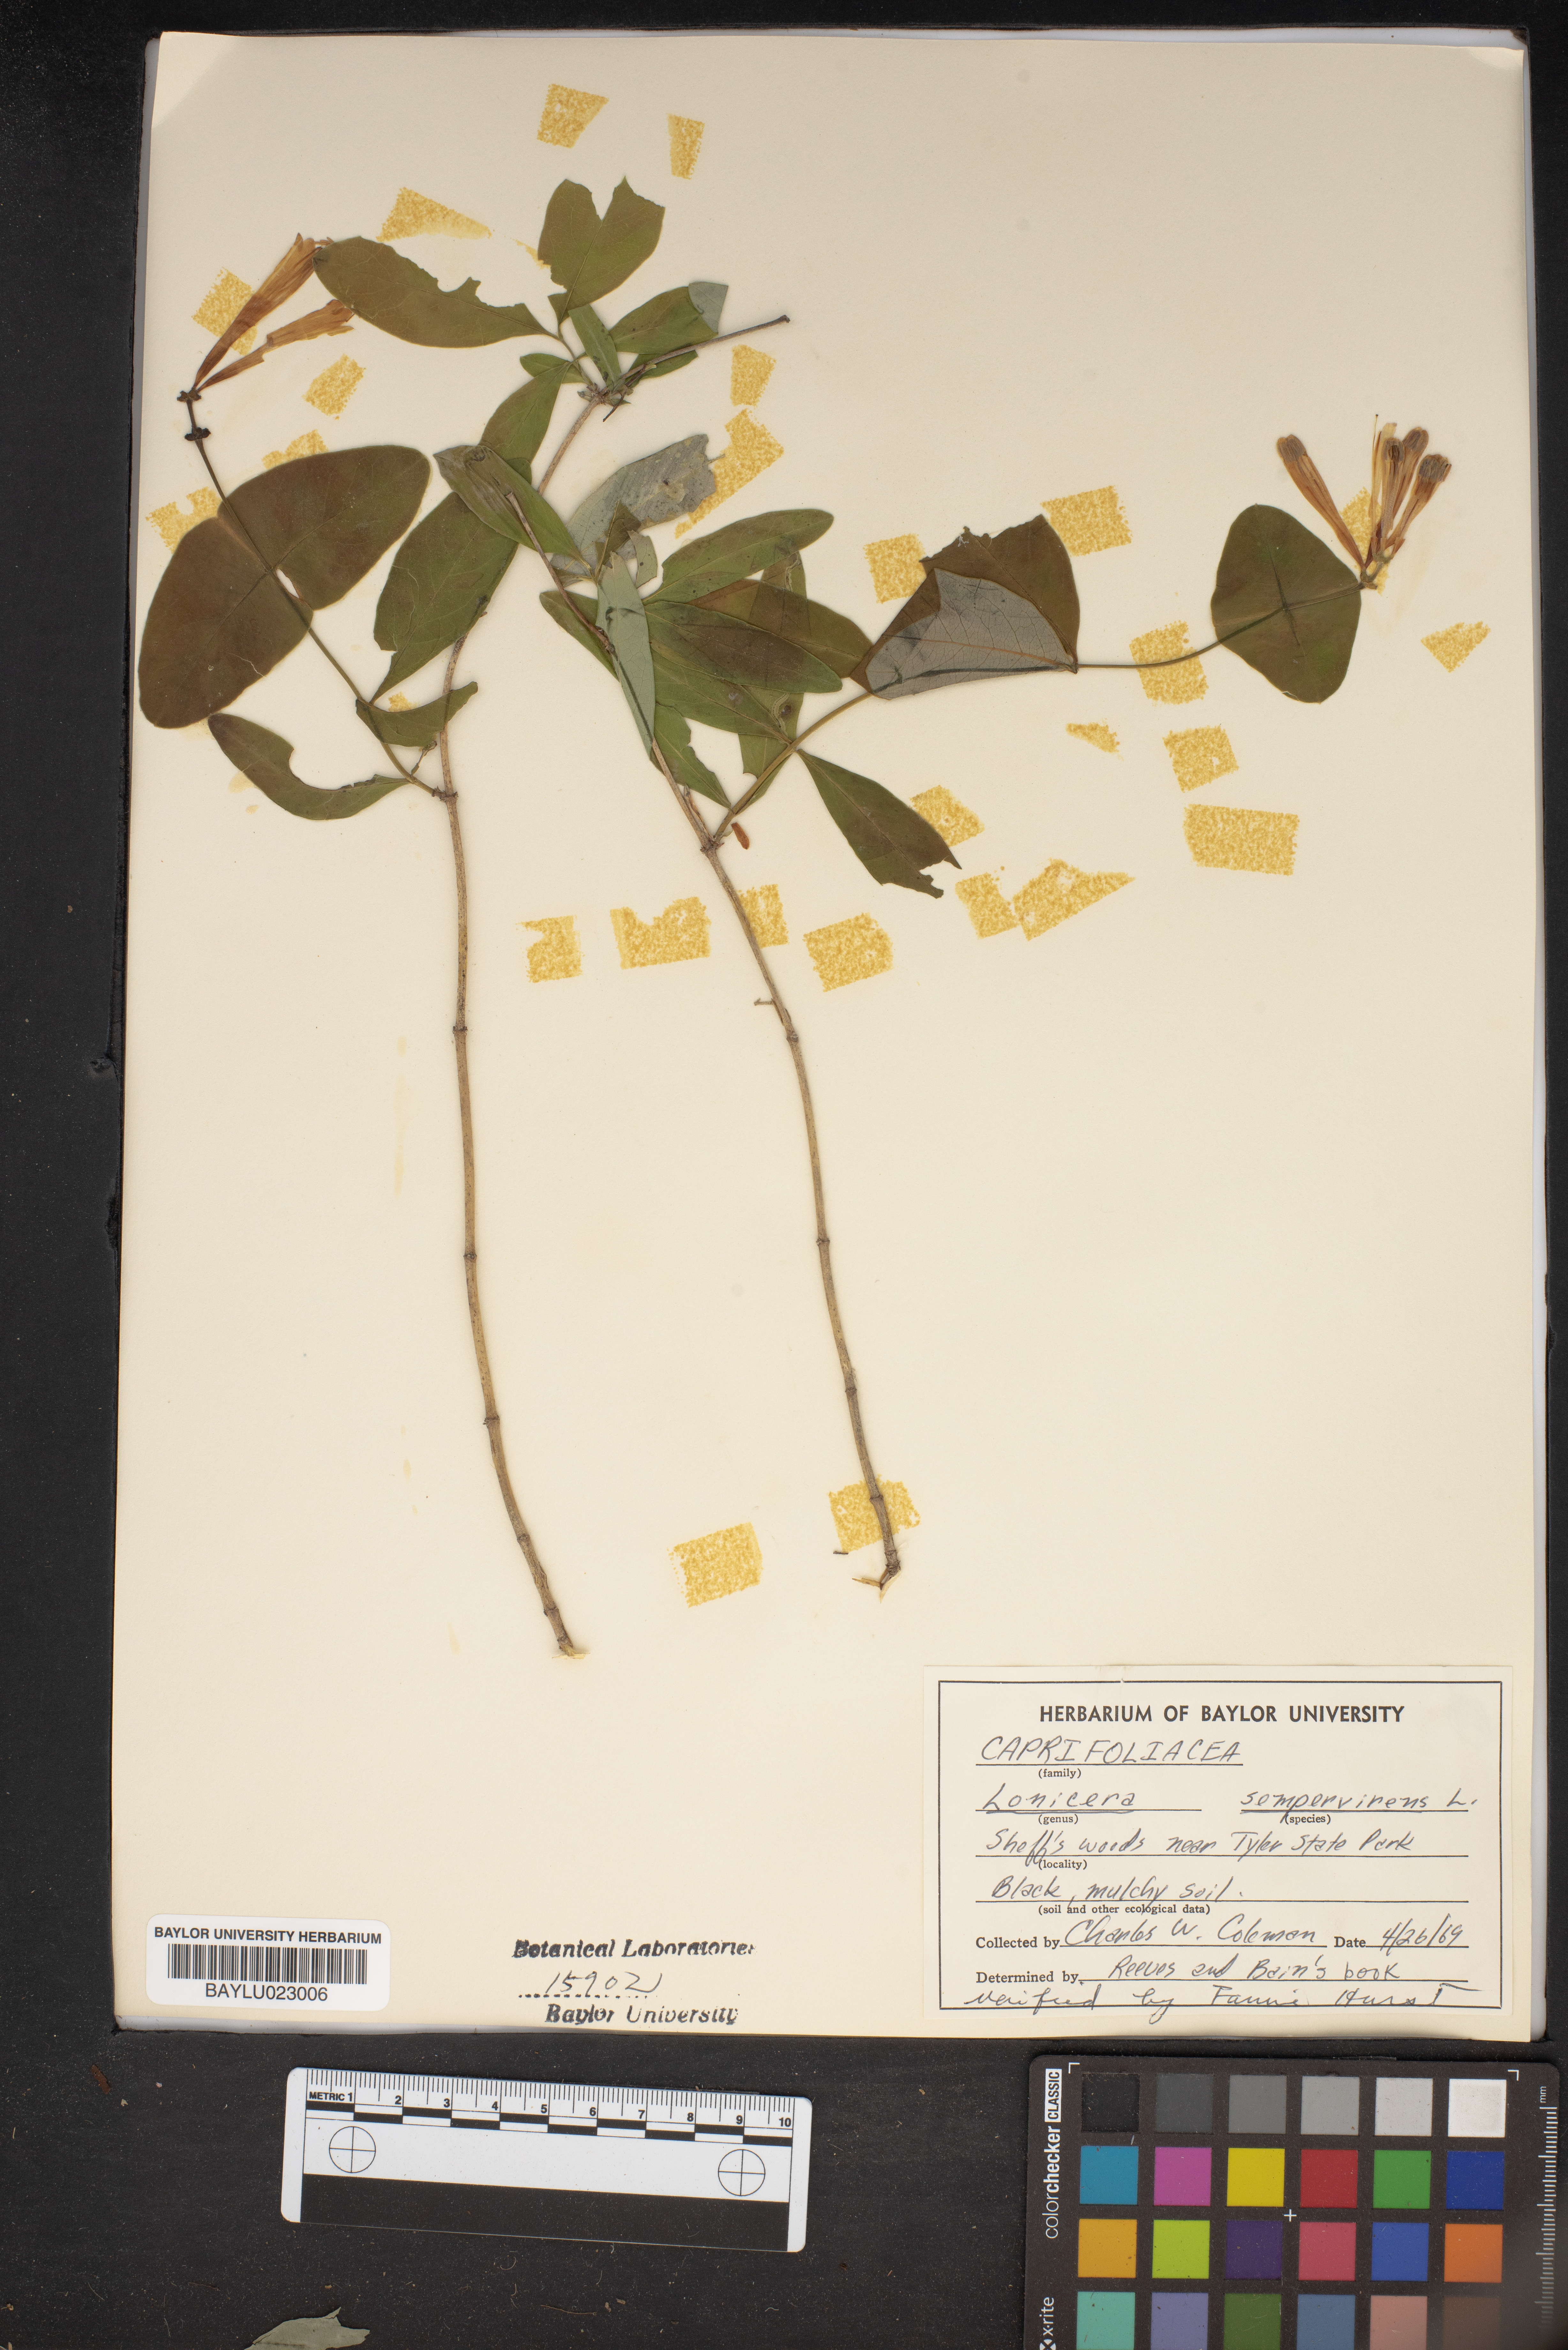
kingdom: Plantae
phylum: Tracheophyta
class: Magnoliopsida
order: Dipsacales
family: Caprifoliaceae
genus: Lonicera
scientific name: Lonicera sempervirens
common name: Coral honeysuckle
